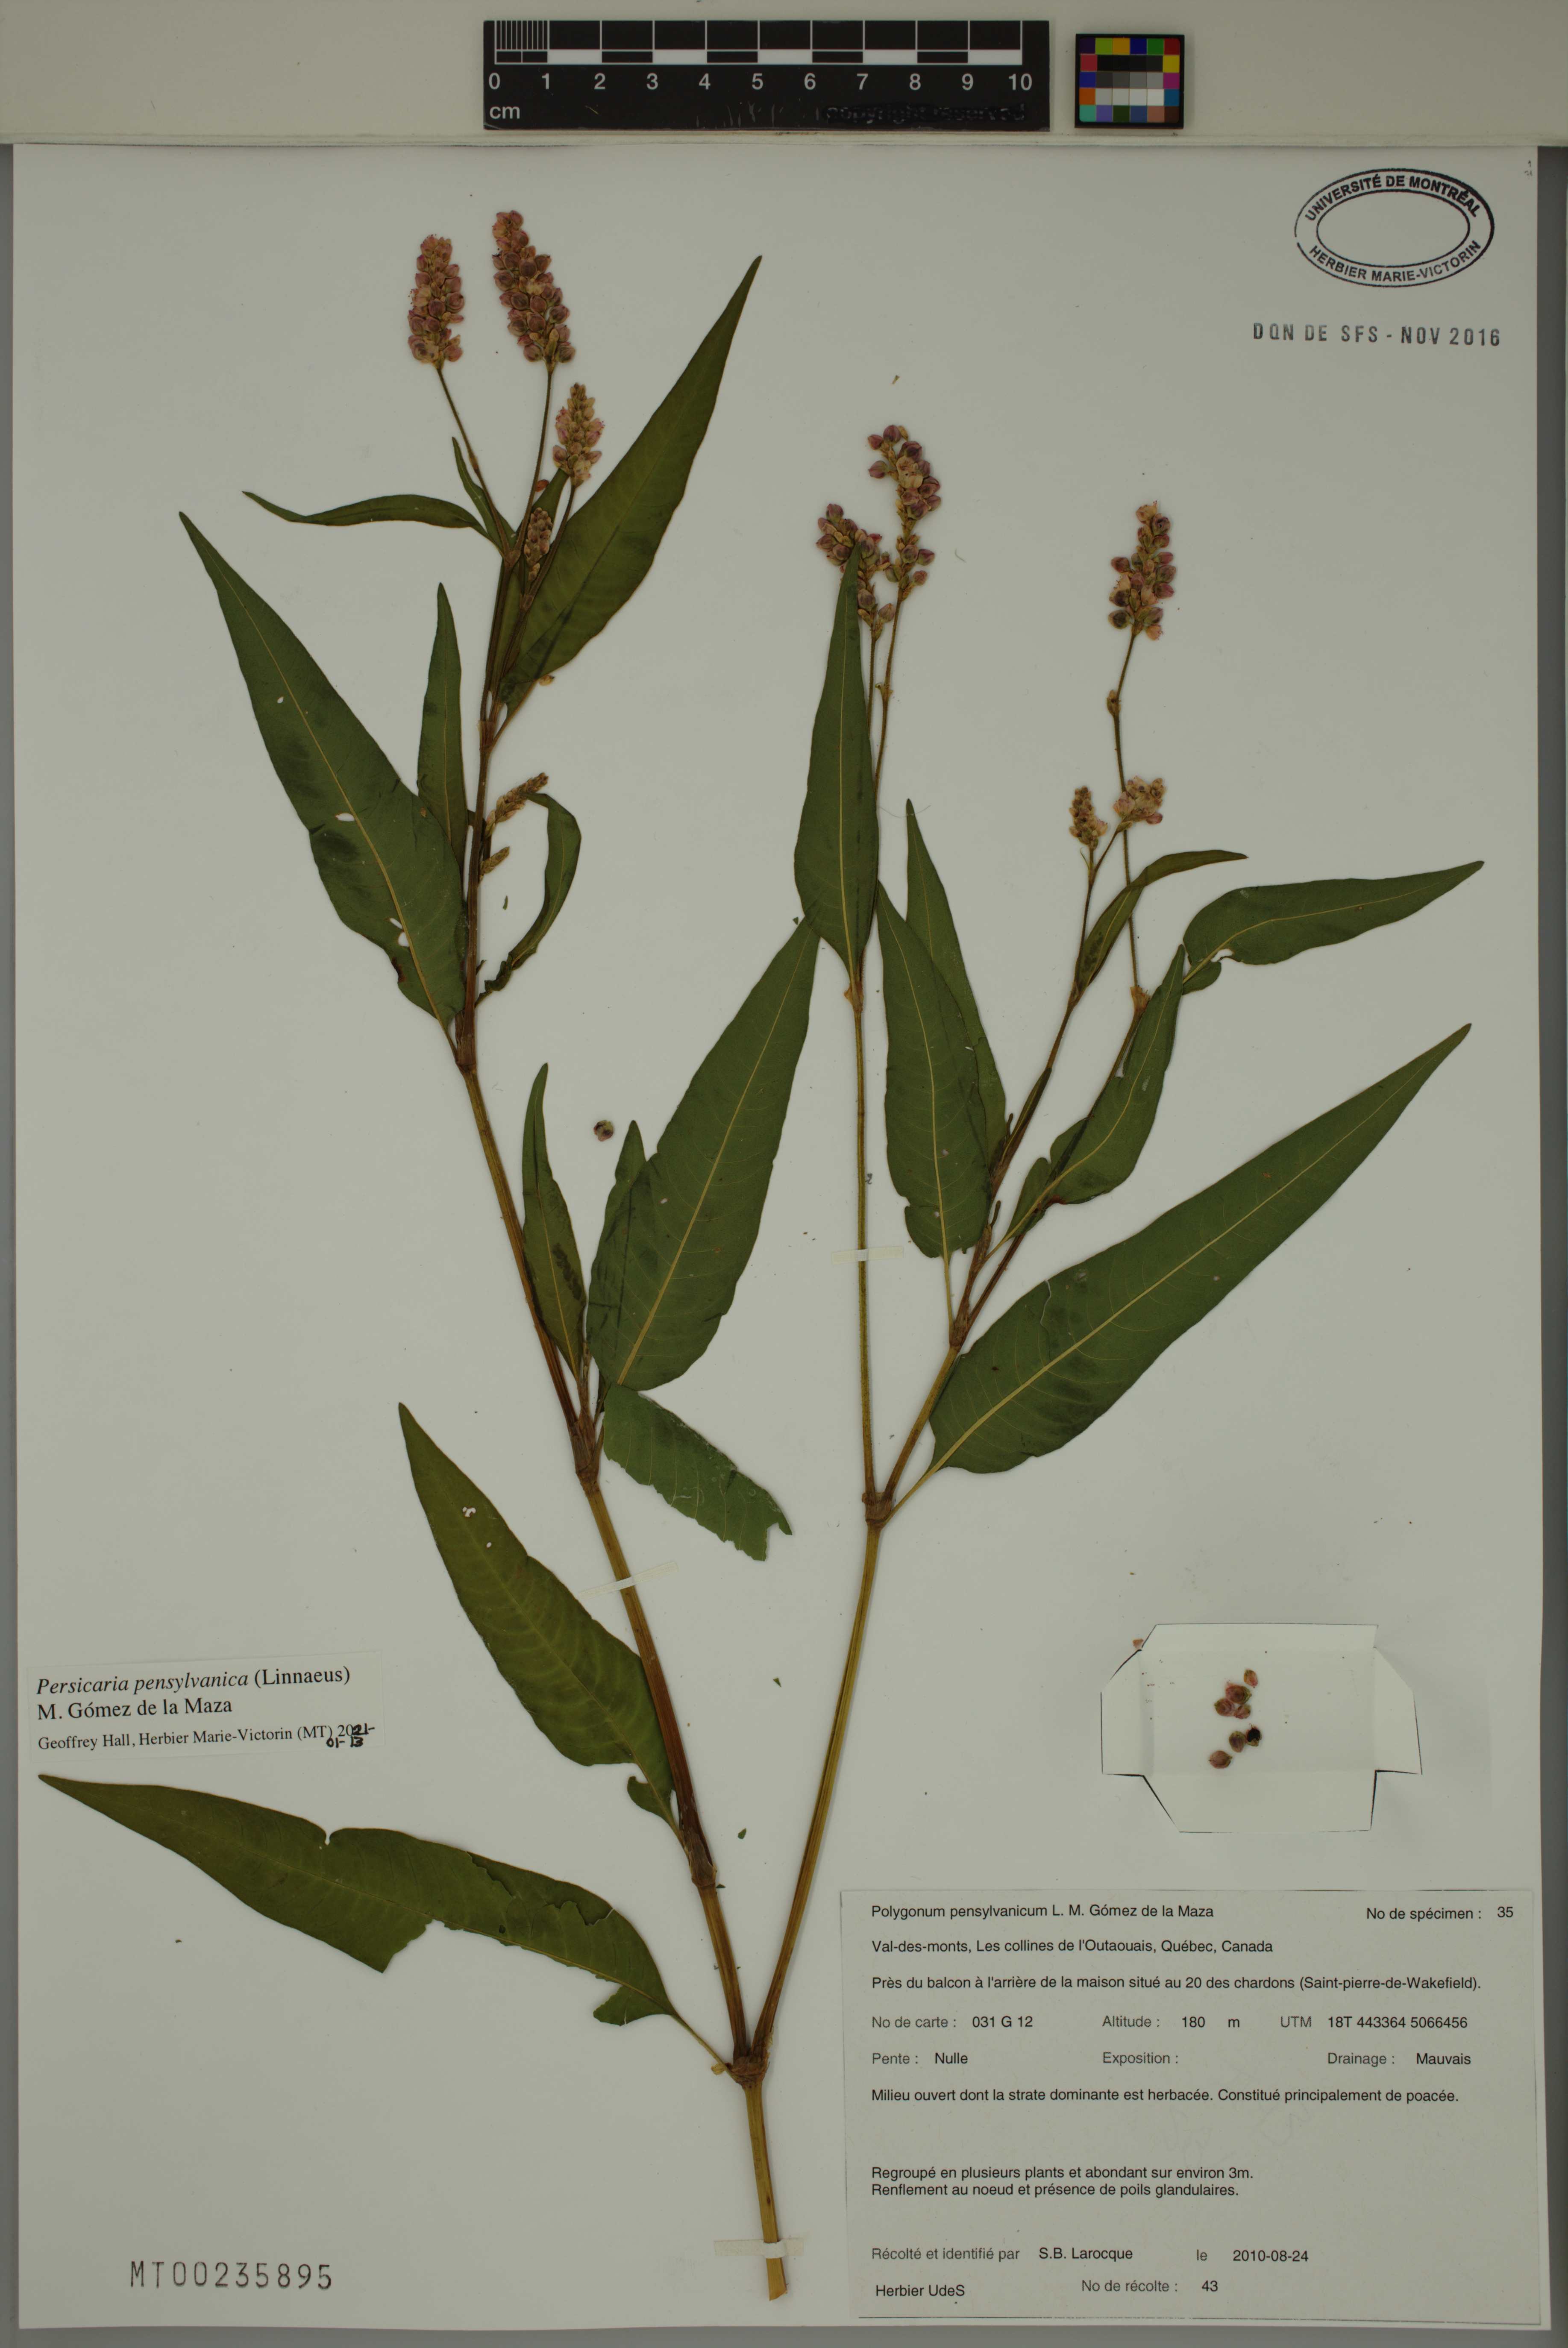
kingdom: Plantae
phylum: Tracheophyta
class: Magnoliopsida
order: Caryophyllales
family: Polygonaceae
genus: Persicaria
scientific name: Persicaria pensylvanica
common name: Pinkweed
